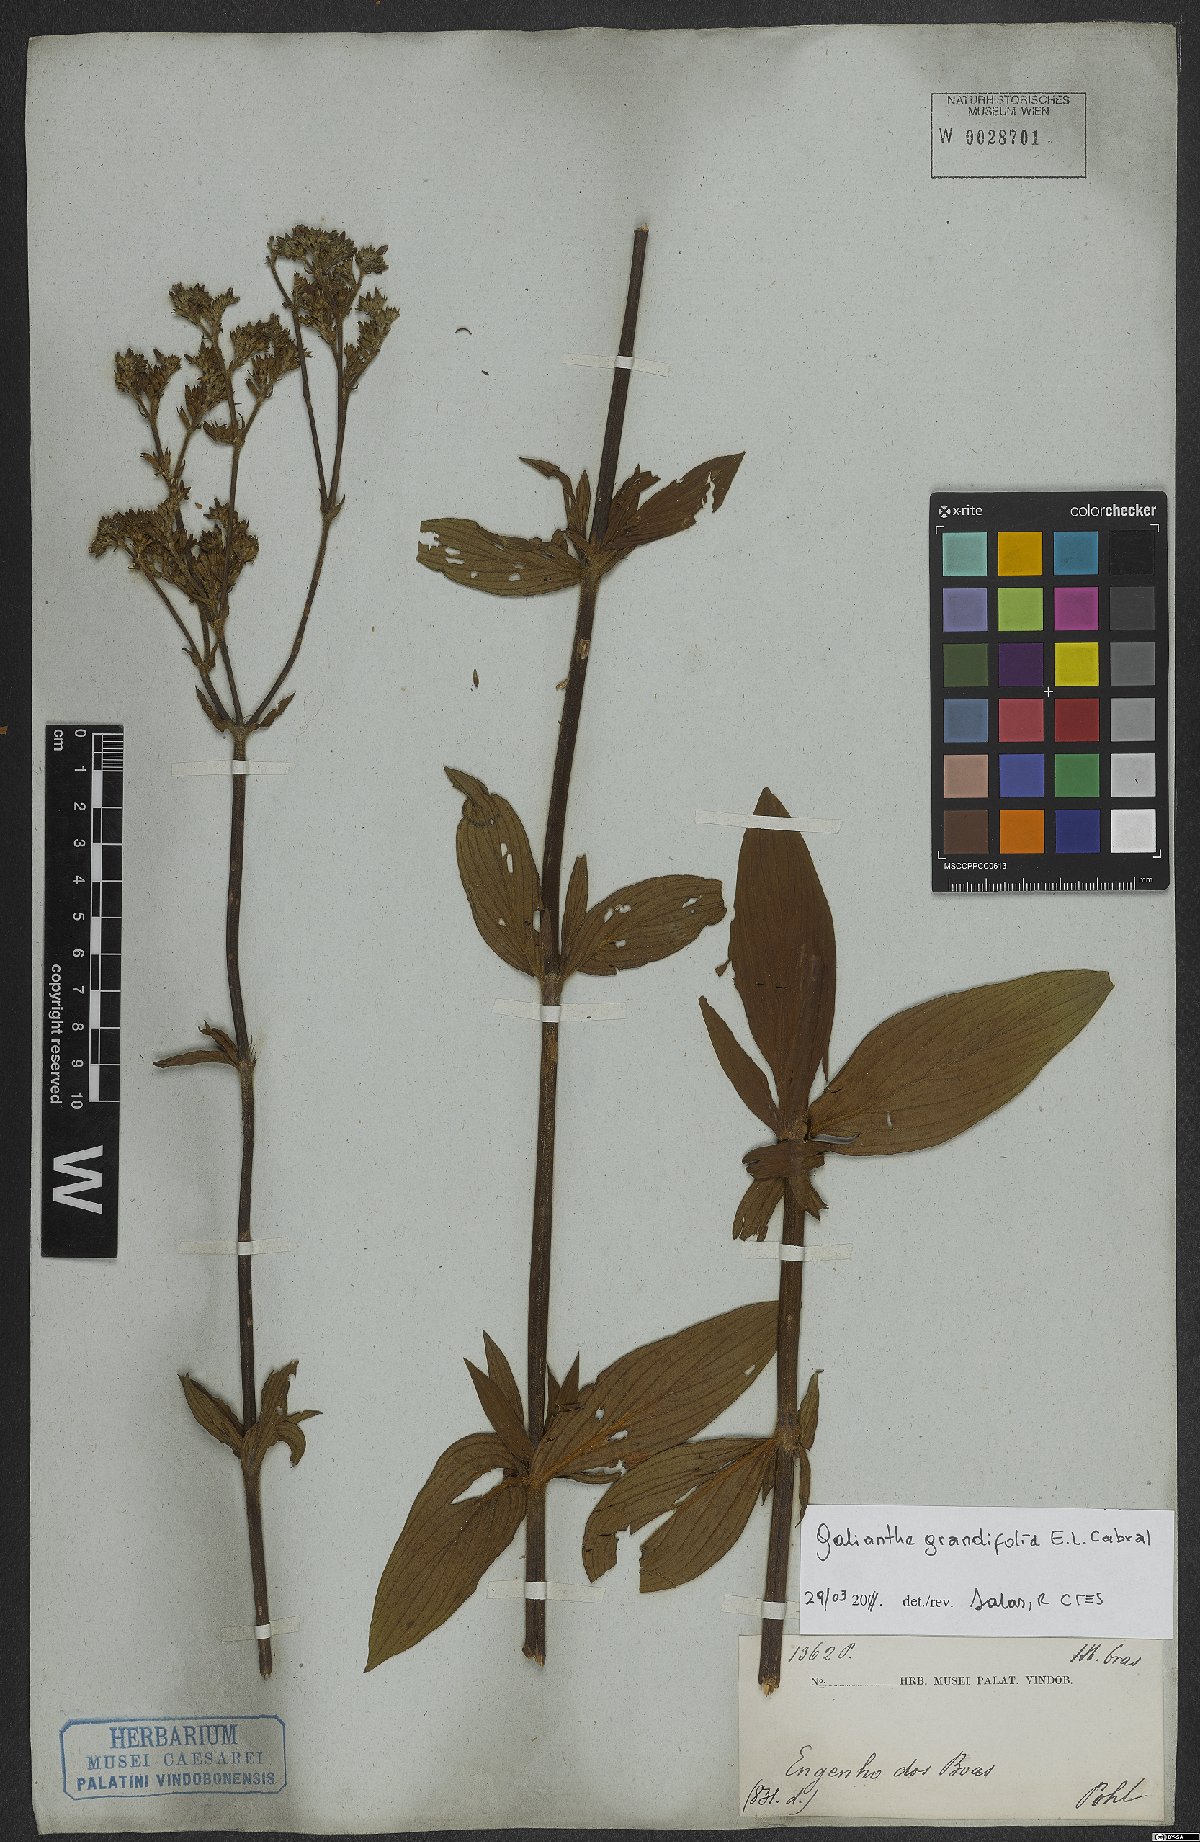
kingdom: Plantae
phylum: Tracheophyta
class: Magnoliopsida
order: Gentianales
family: Rubiaceae
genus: Galianthe
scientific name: Galianthe grandifolia
